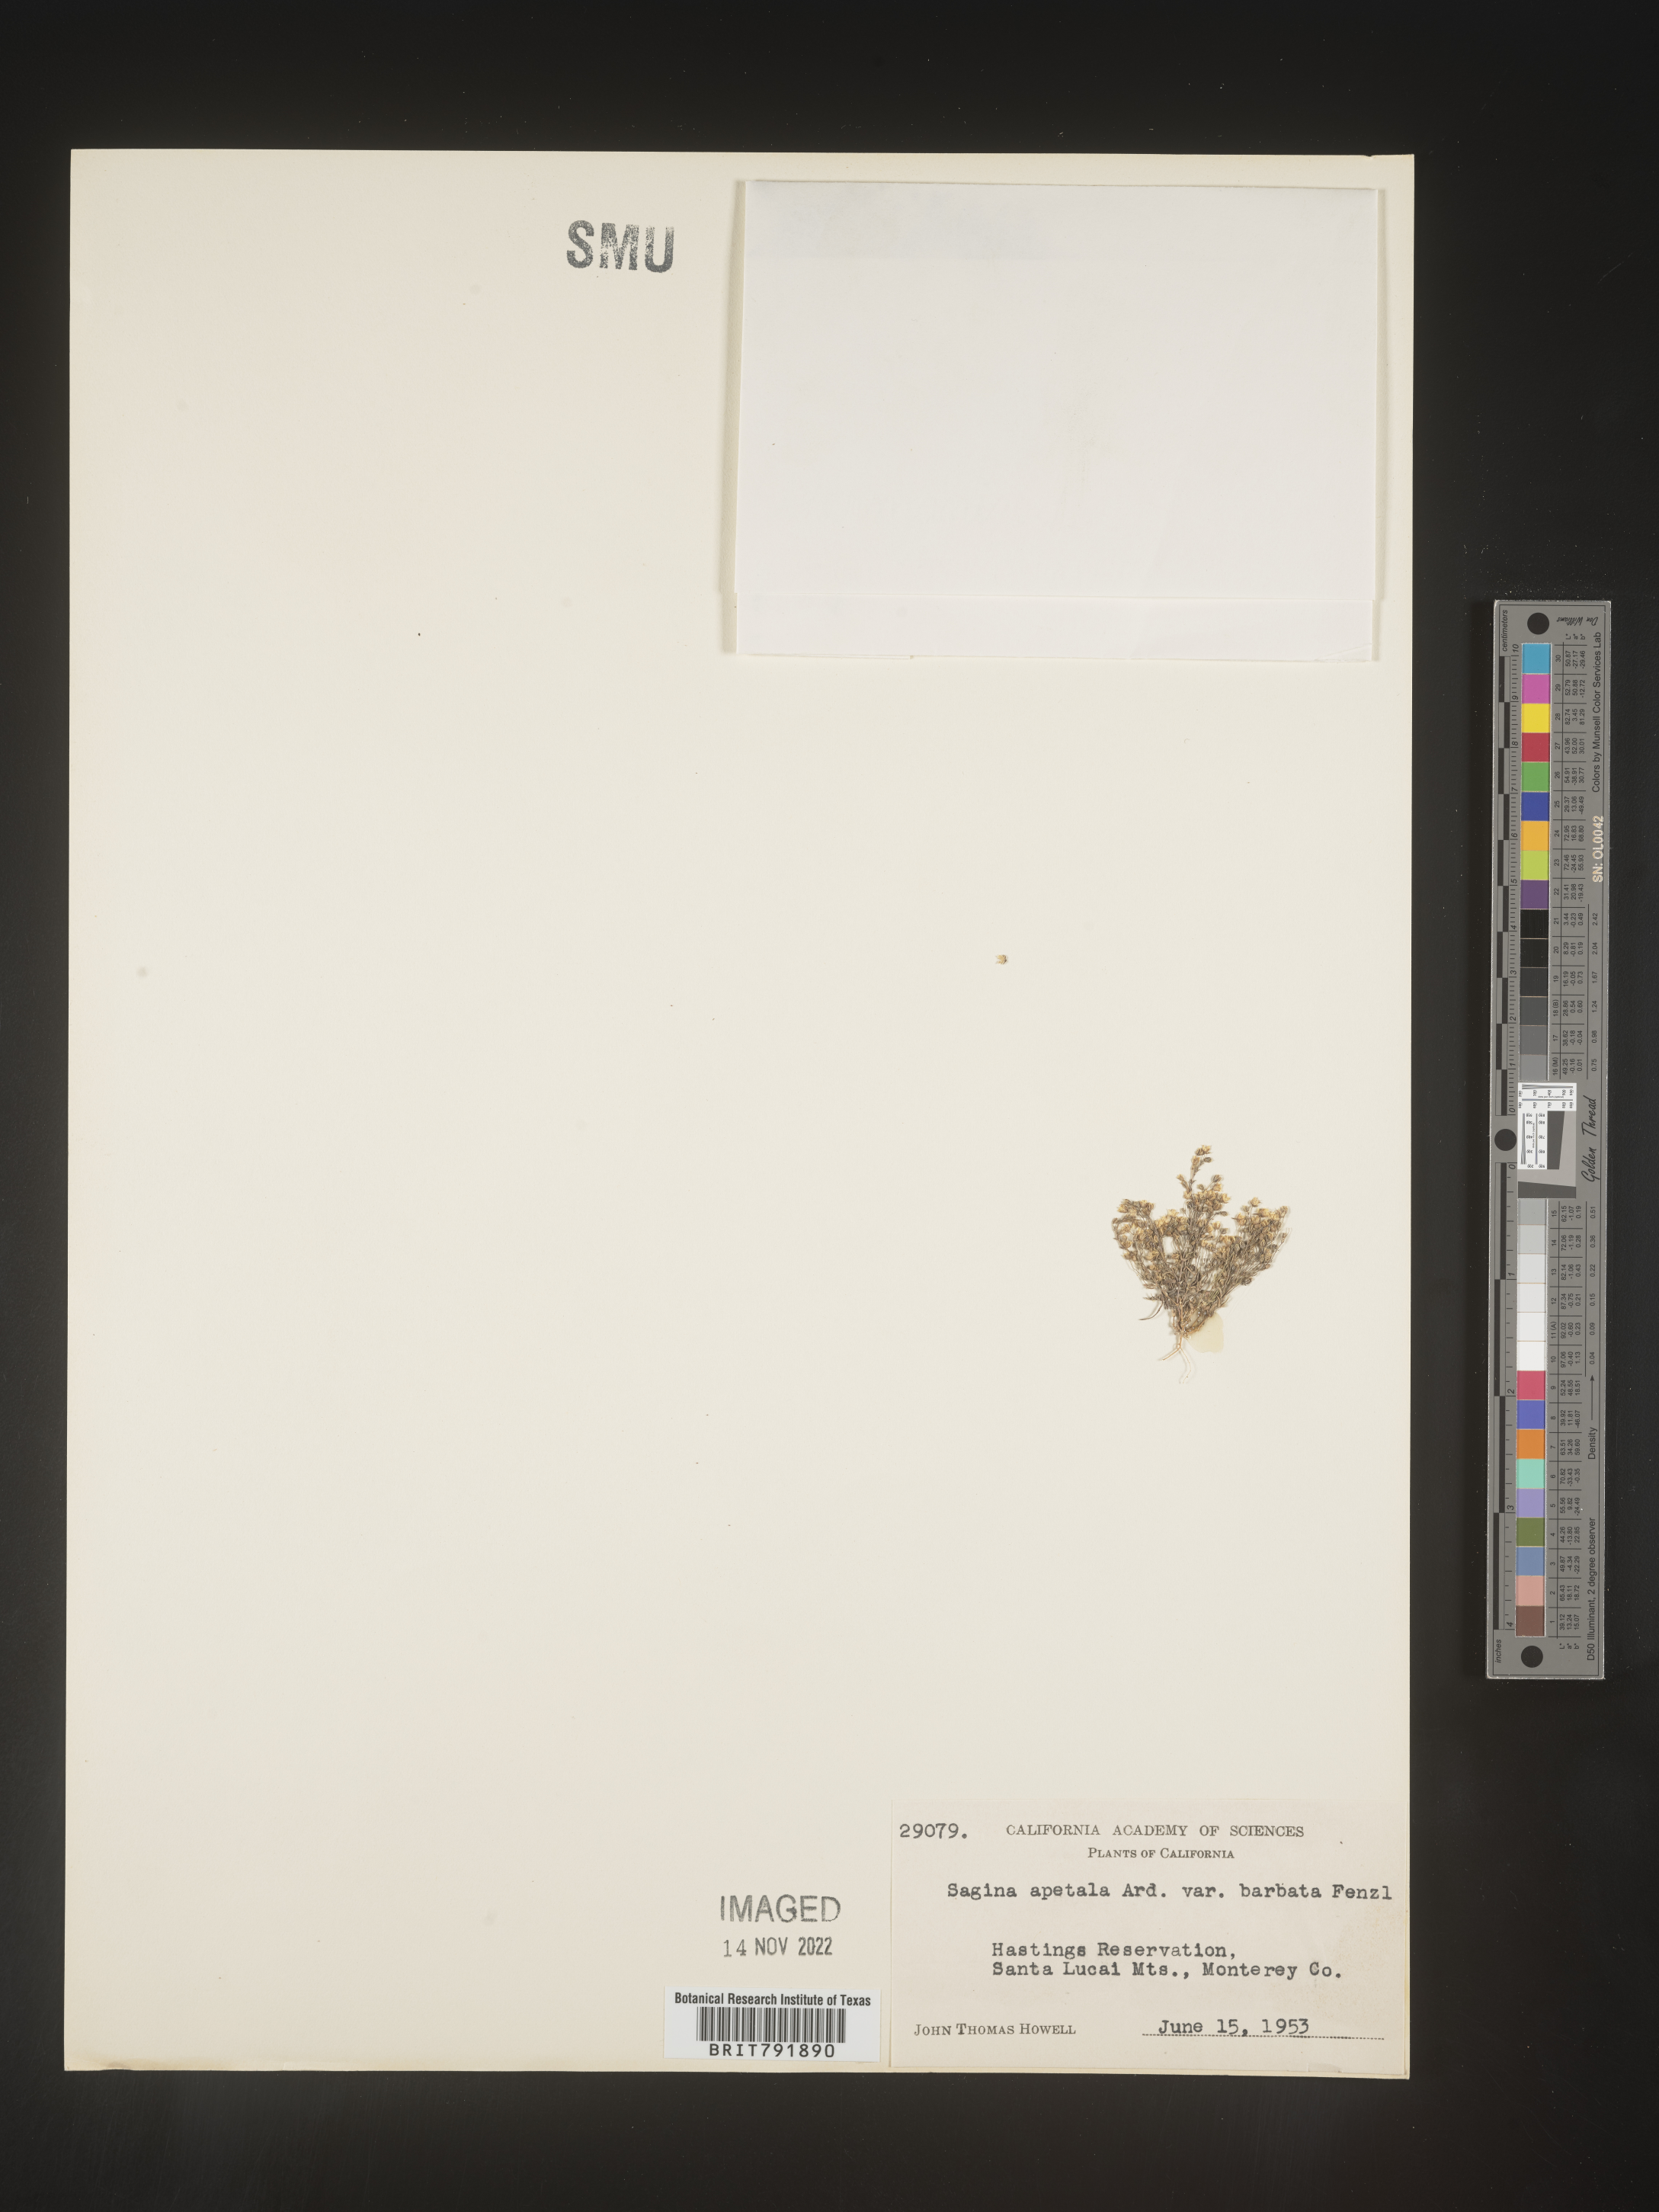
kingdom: Plantae
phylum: Tracheophyta
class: Magnoliopsida
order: Caryophyllales
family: Caryophyllaceae
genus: Sagina
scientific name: Sagina
